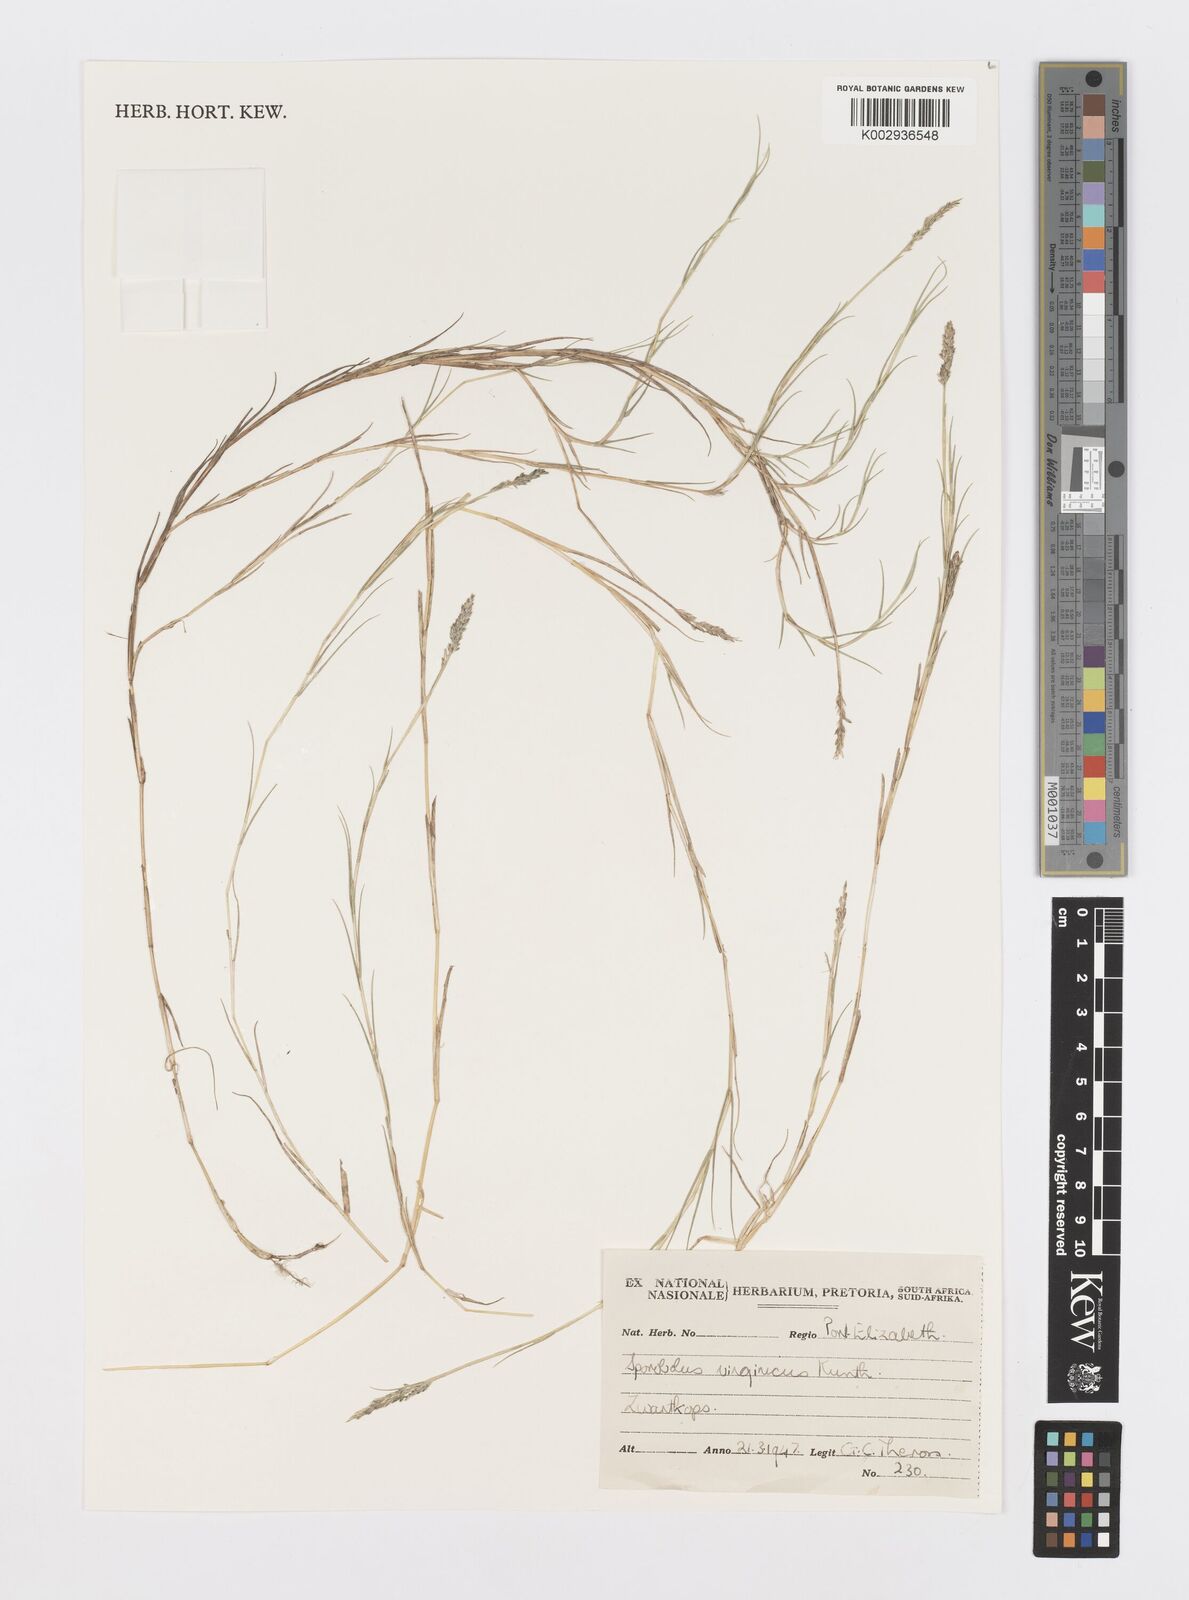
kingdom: Plantae
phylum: Tracheophyta
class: Liliopsida
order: Poales
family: Poaceae
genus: Sporobolus
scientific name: Sporobolus virginicus
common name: Beach dropseed
